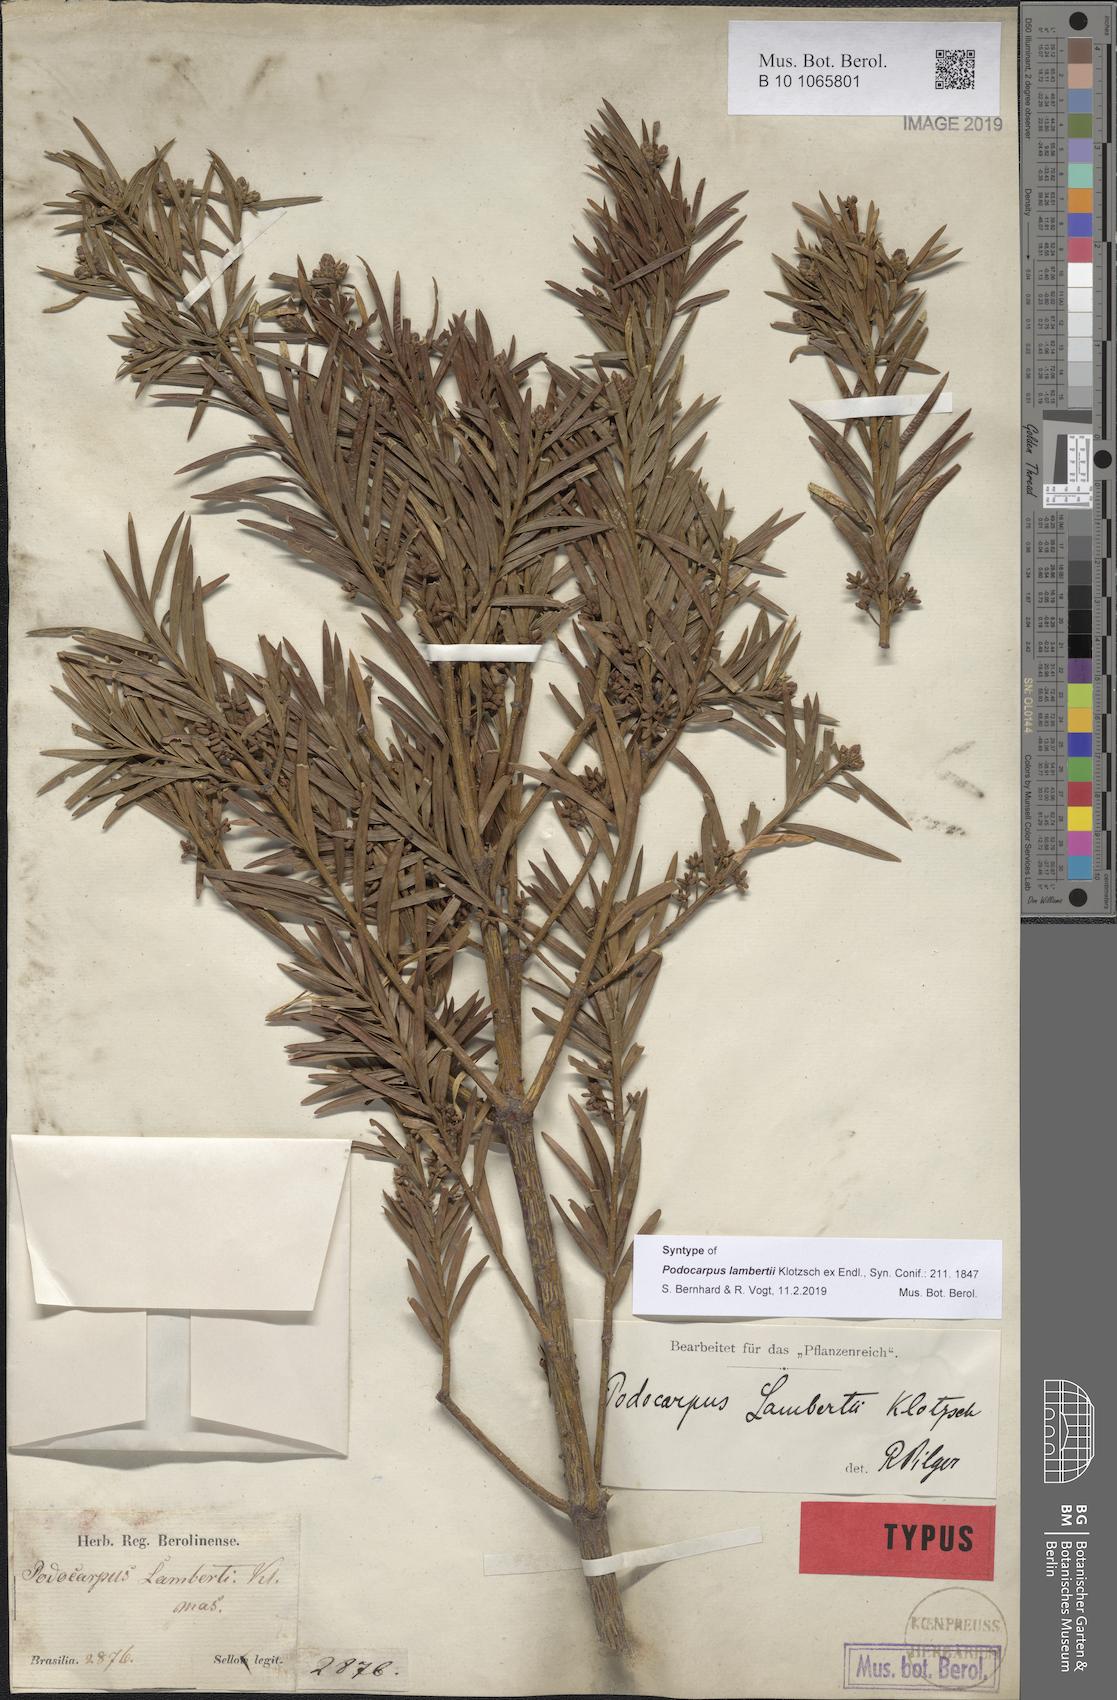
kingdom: Plantae
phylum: Tracheophyta
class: Pinopsida
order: Pinales
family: Podocarpaceae
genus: Podocarpus
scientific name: Podocarpus lambertii
